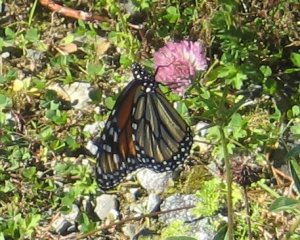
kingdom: Animalia
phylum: Arthropoda
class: Insecta
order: Lepidoptera
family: Nymphalidae
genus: Danaus
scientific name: Danaus plexippus
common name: Monarch
